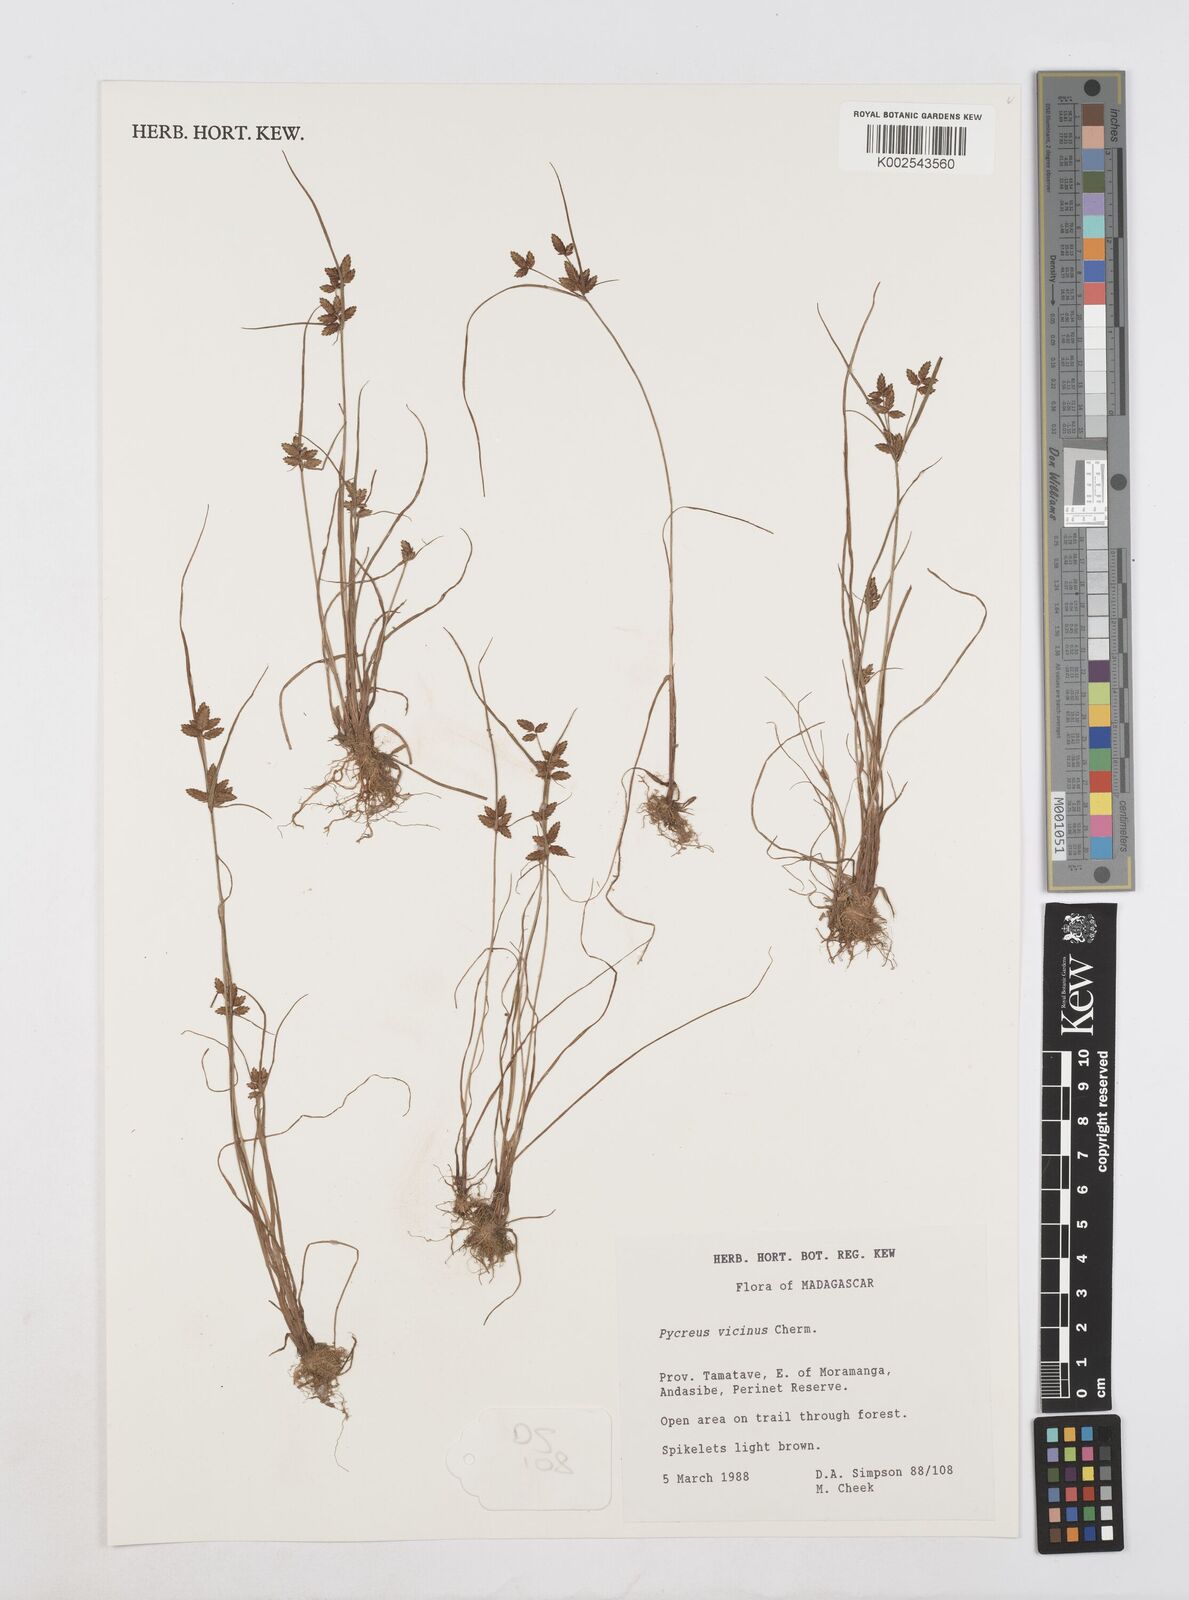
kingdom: Plantae
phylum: Tracheophyta
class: Liliopsida
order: Poales
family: Cyperaceae
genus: Cyperus
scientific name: Cyperus
